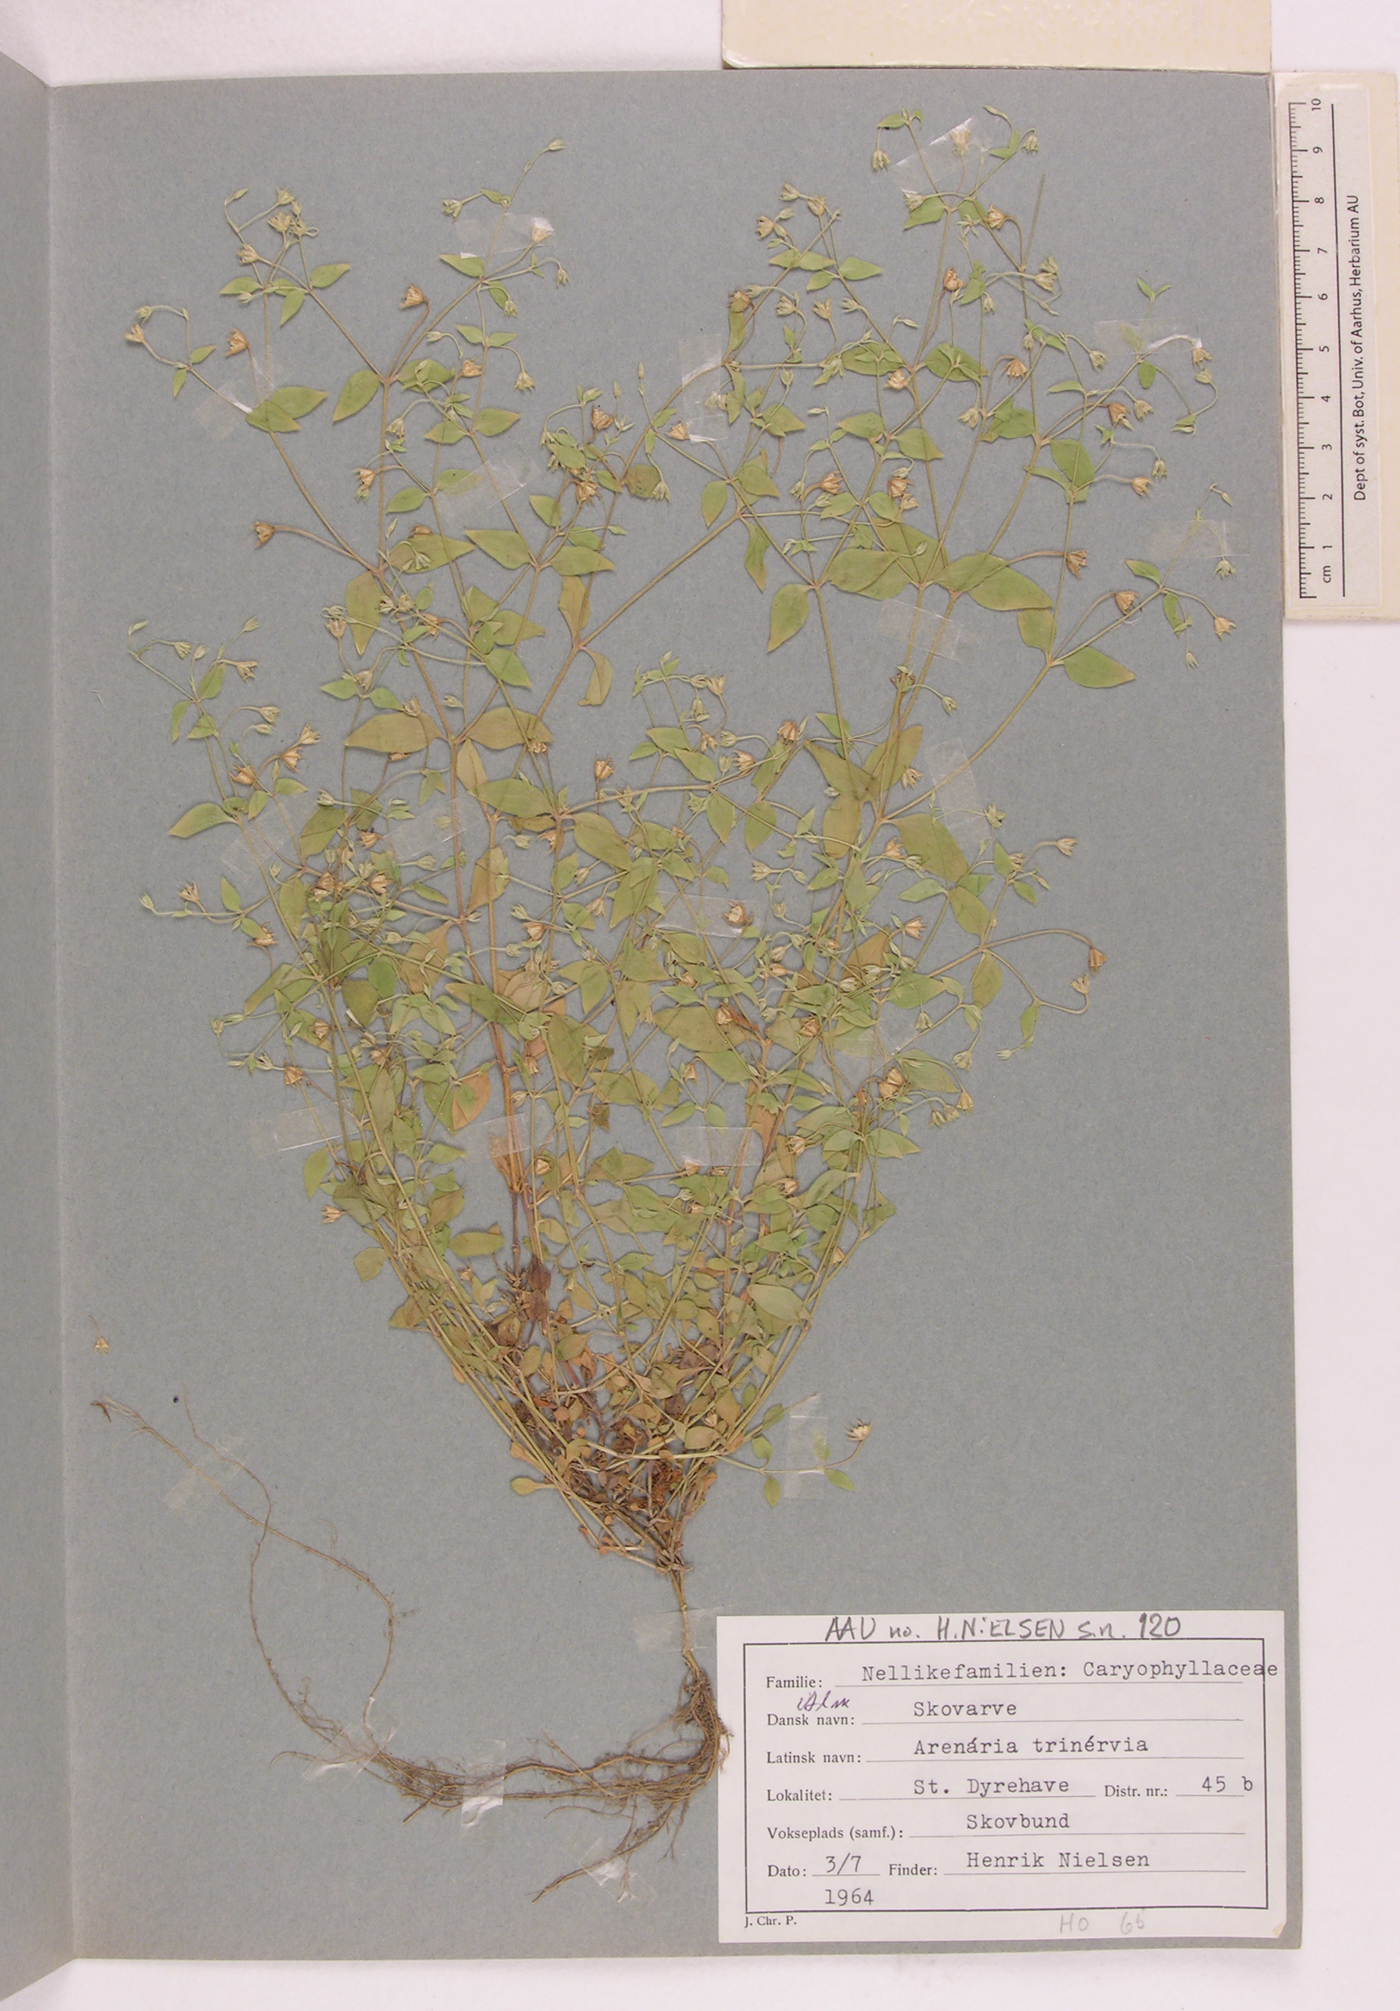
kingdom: Plantae
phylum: Tracheophyta
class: Magnoliopsida
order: Caryophyllales
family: Caryophyllaceae
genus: Moehringia
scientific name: Moehringia trinervia
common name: Three-nerved sandwort
